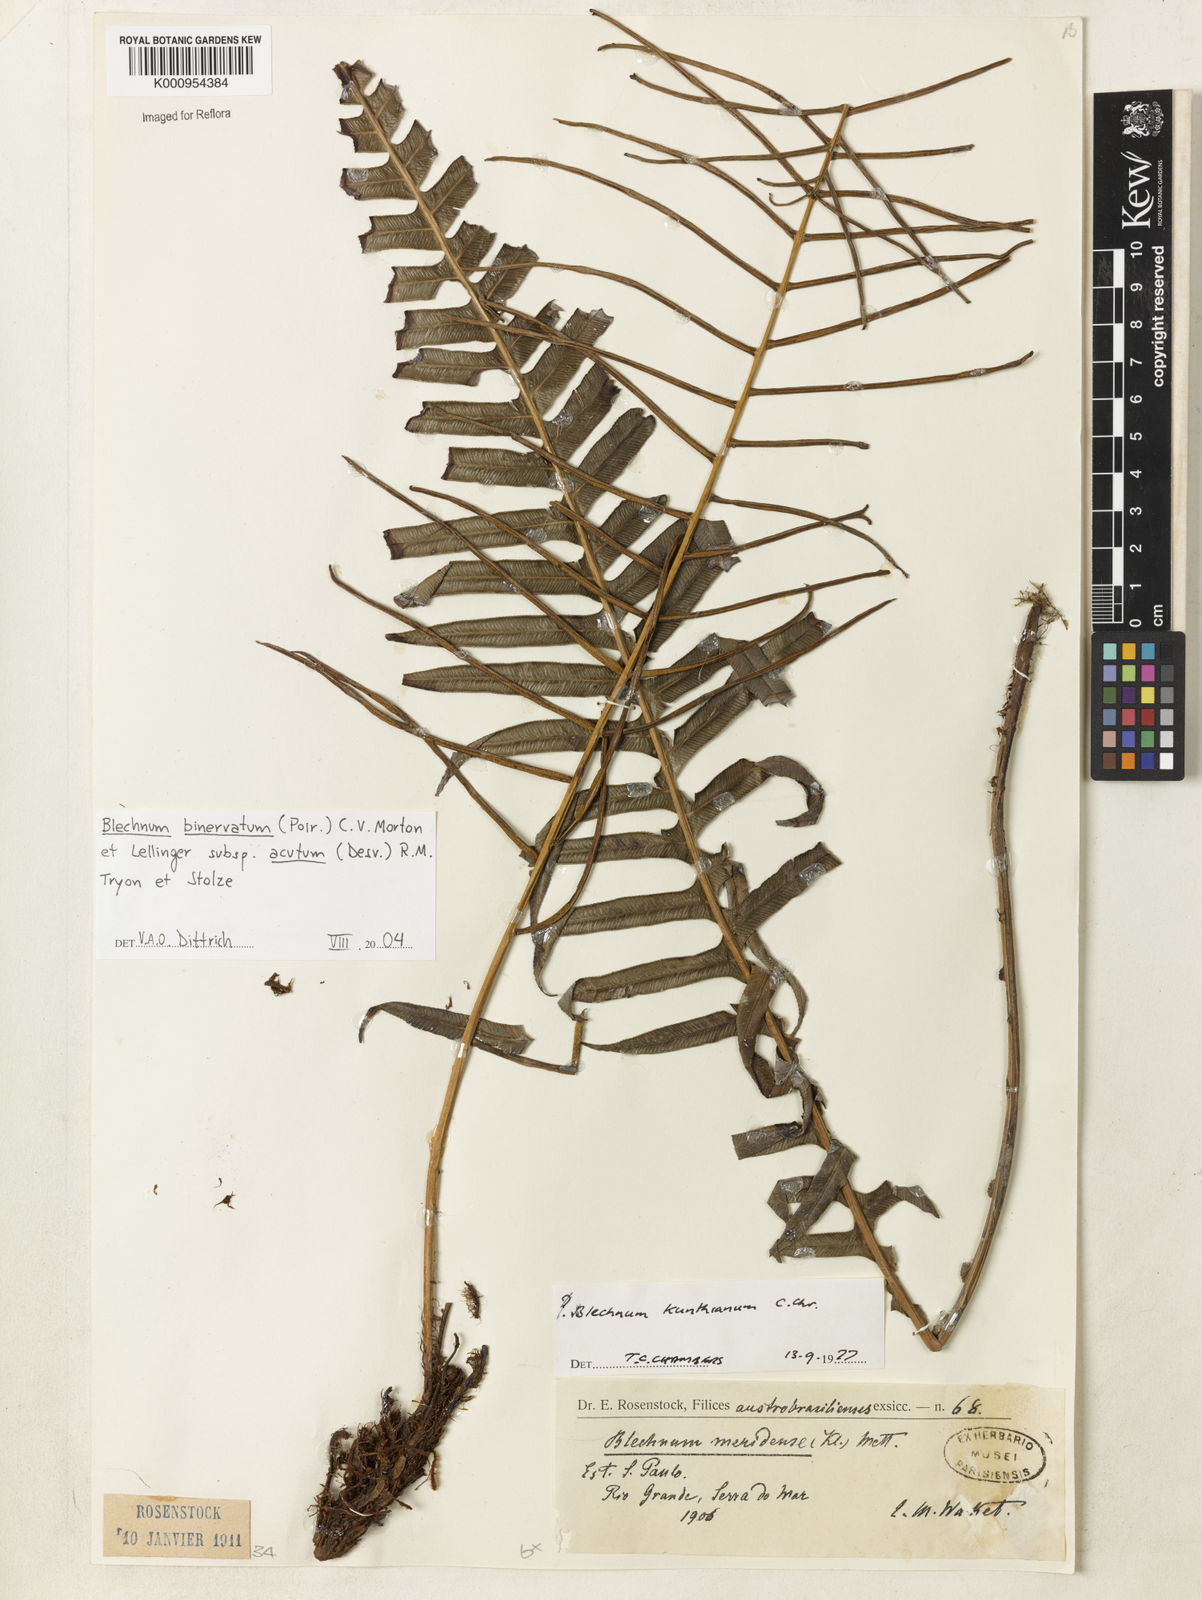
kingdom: Plantae
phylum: Tracheophyta
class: Polypodiopsida
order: Polypodiales
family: Blechnaceae
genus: Lomaridium
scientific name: Lomaridium acutum
